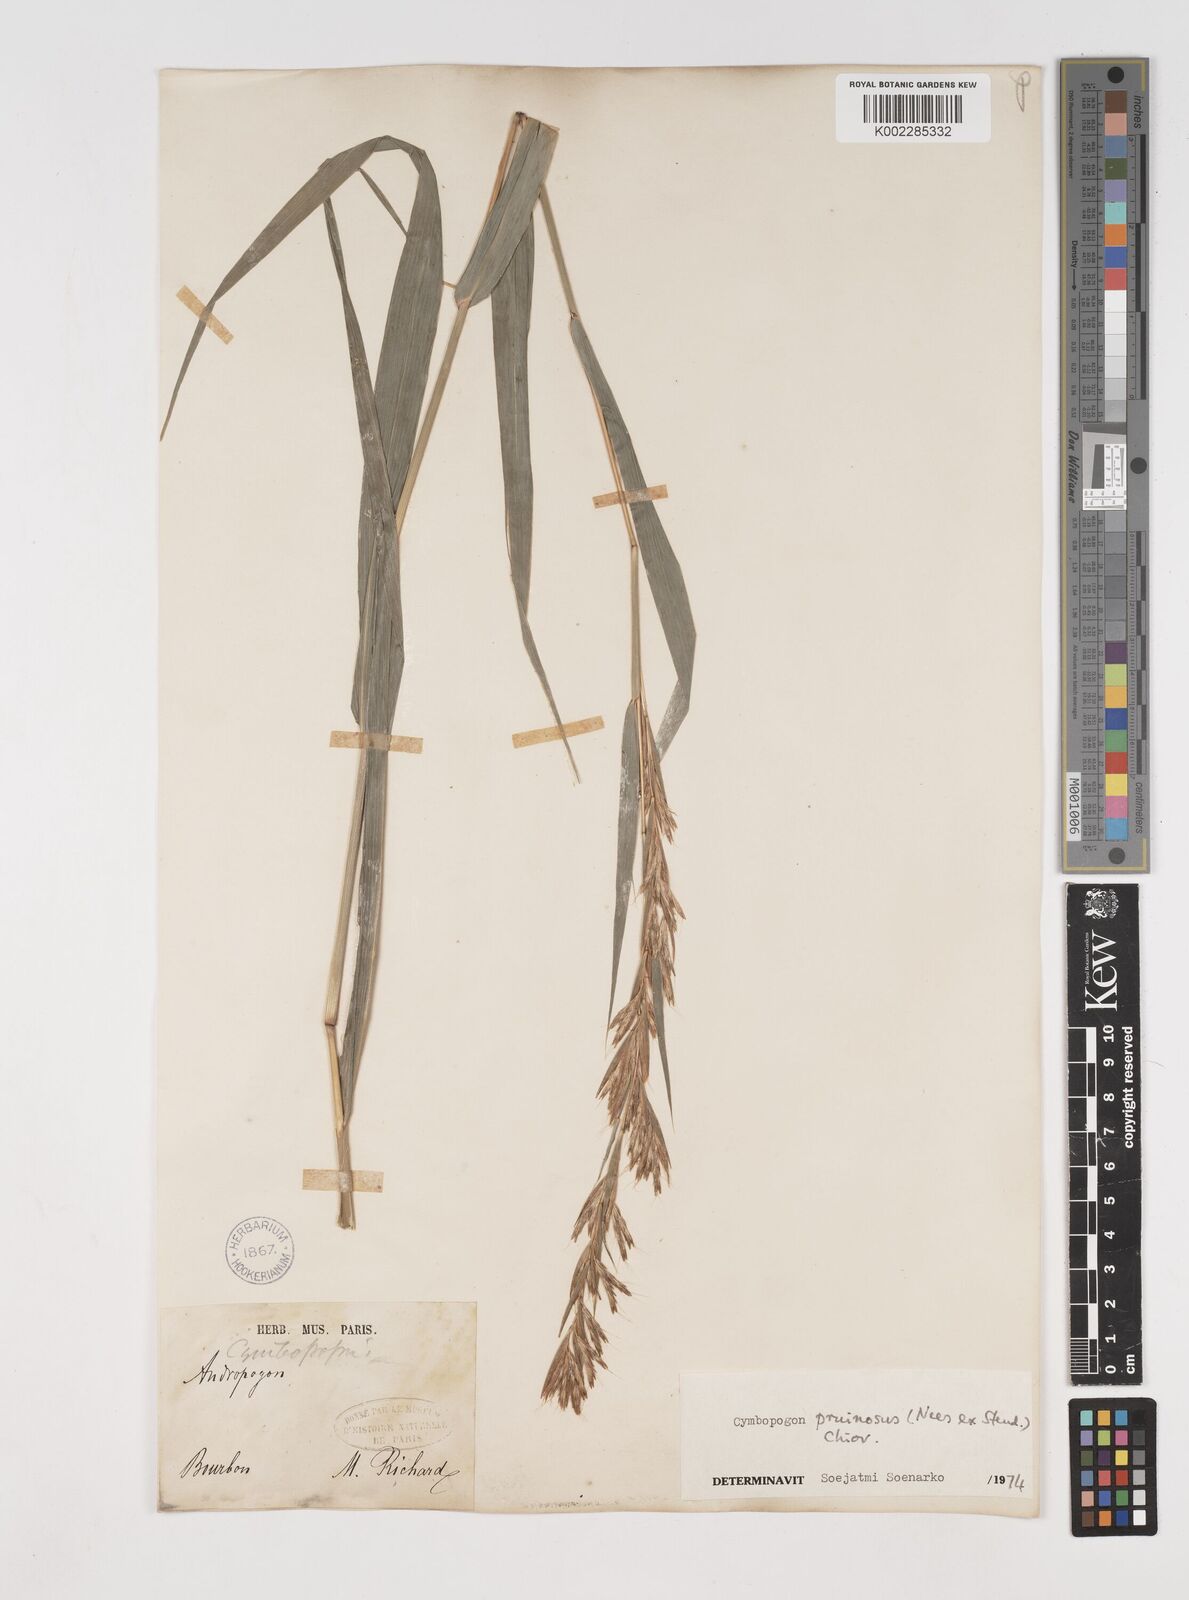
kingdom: Plantae
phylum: Tracheophyta
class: Liliopsida
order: Poales
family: Poaceae
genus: Cymbopogon
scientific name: Cymbopogon pruinosus
